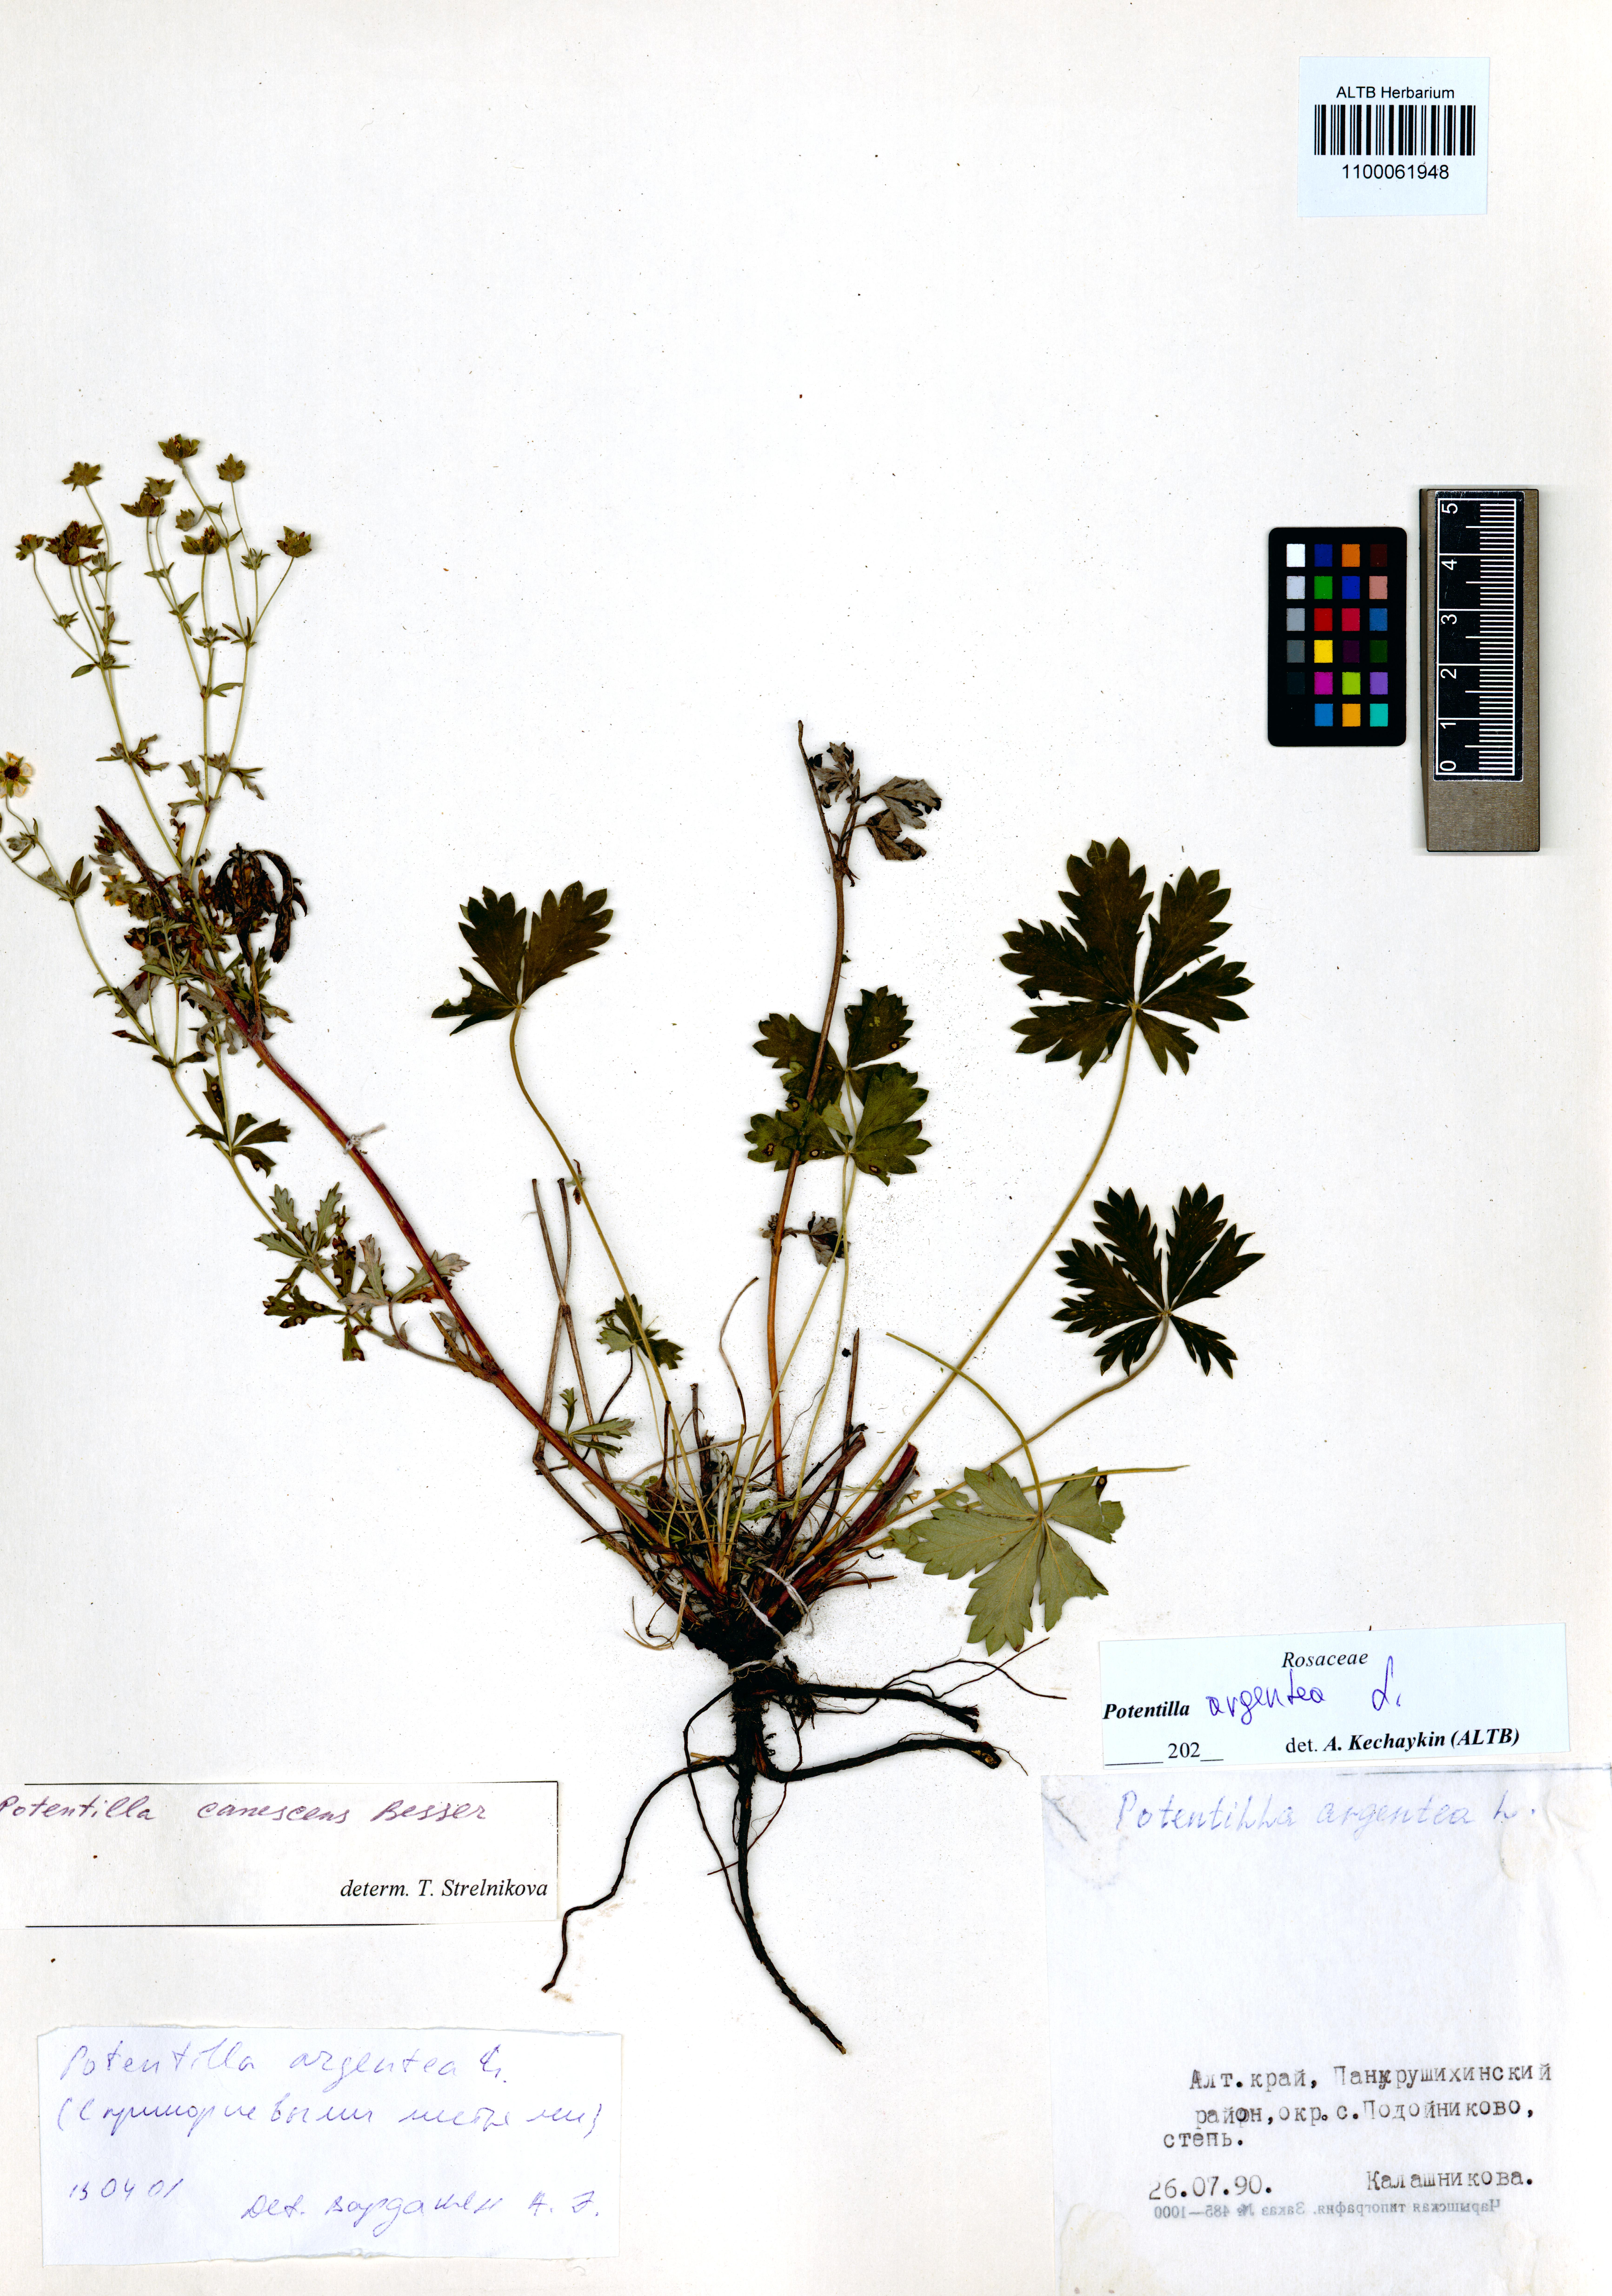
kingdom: Plantae
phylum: Tracheophyta
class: Magnoliopsida
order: Rosales
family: Rosaceae
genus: Potentilla
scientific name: Potentilla argentea
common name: Hoary cinquefoil
